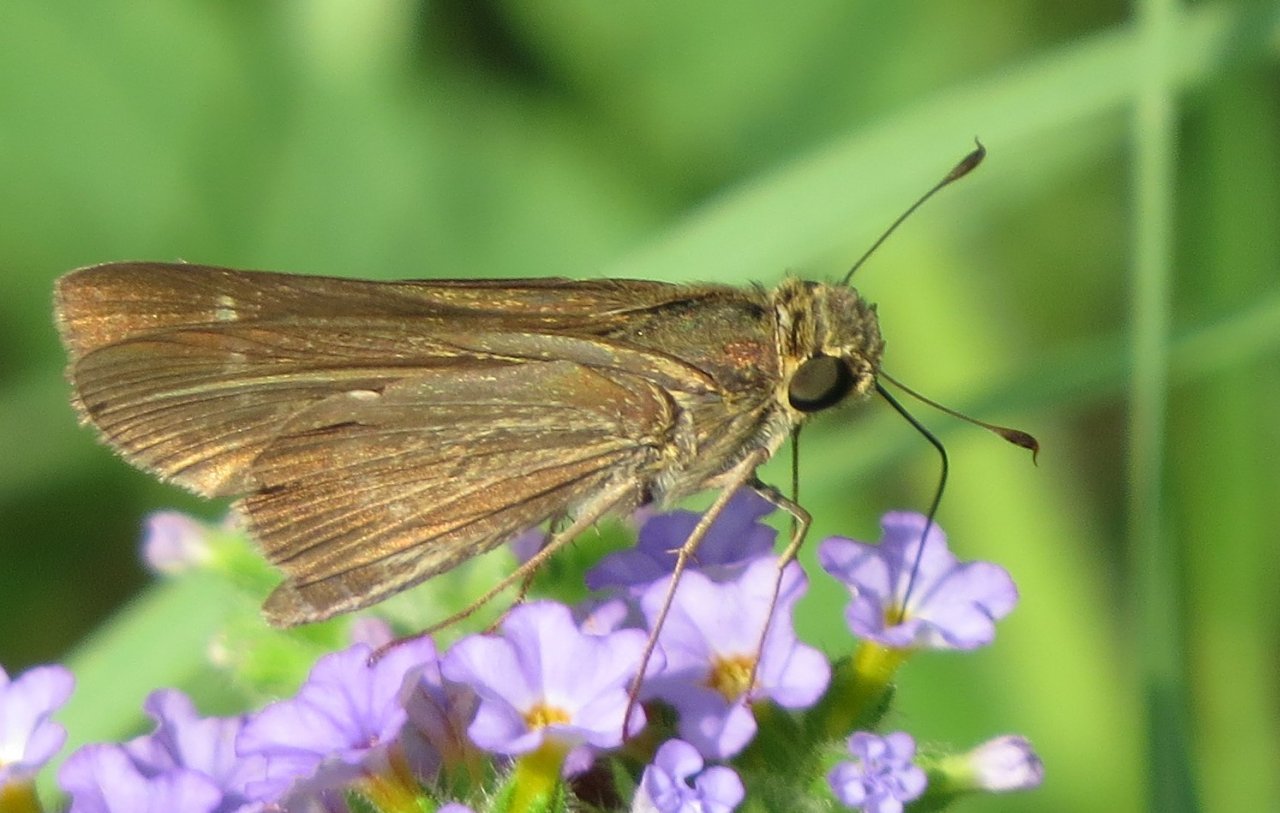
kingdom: Animalia
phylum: Arthropoda
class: Insecta
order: Lepidoptera
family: Hesperiidae
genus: Panoquina
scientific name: Panoquina ocola
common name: Ocola Skipper
